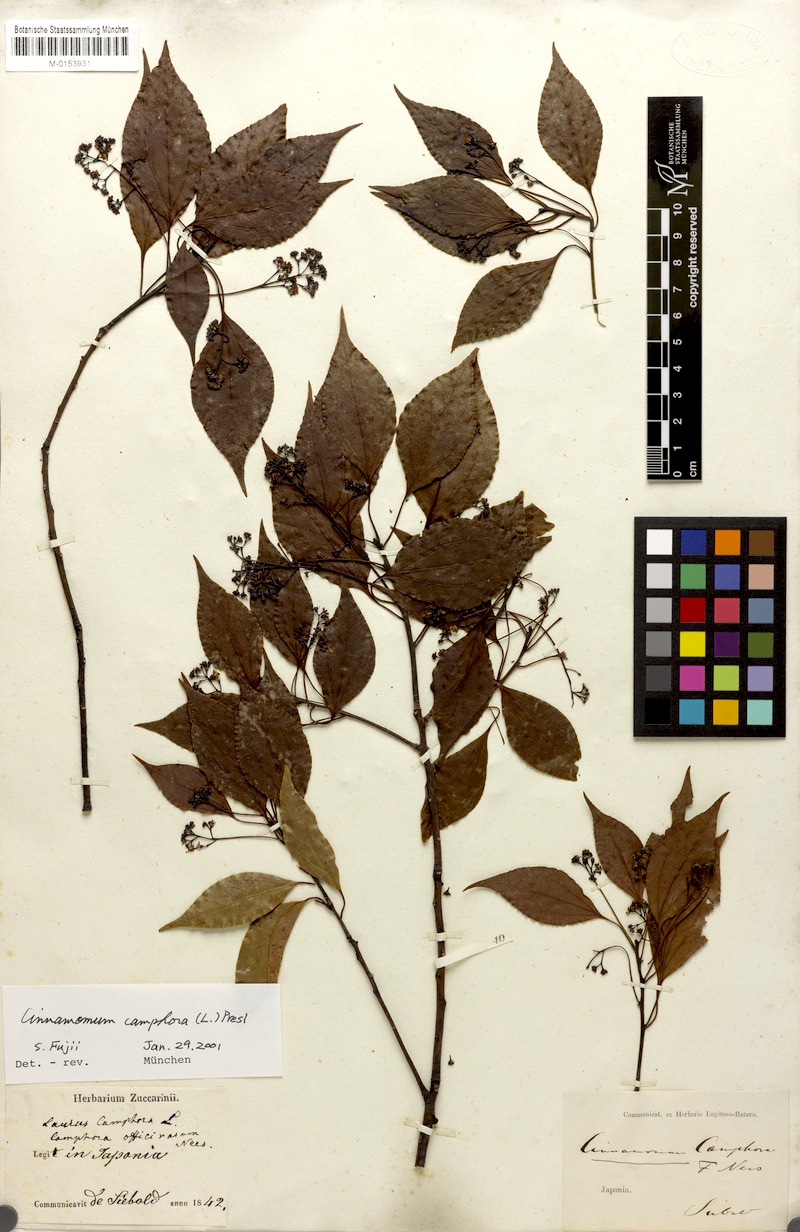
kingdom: Plantae
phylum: Tracheophyta
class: Magnoliopsida
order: Laurales
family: Lauraceae
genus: Cinnamomum
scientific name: Cinnamomum camphora
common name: Camphortree
